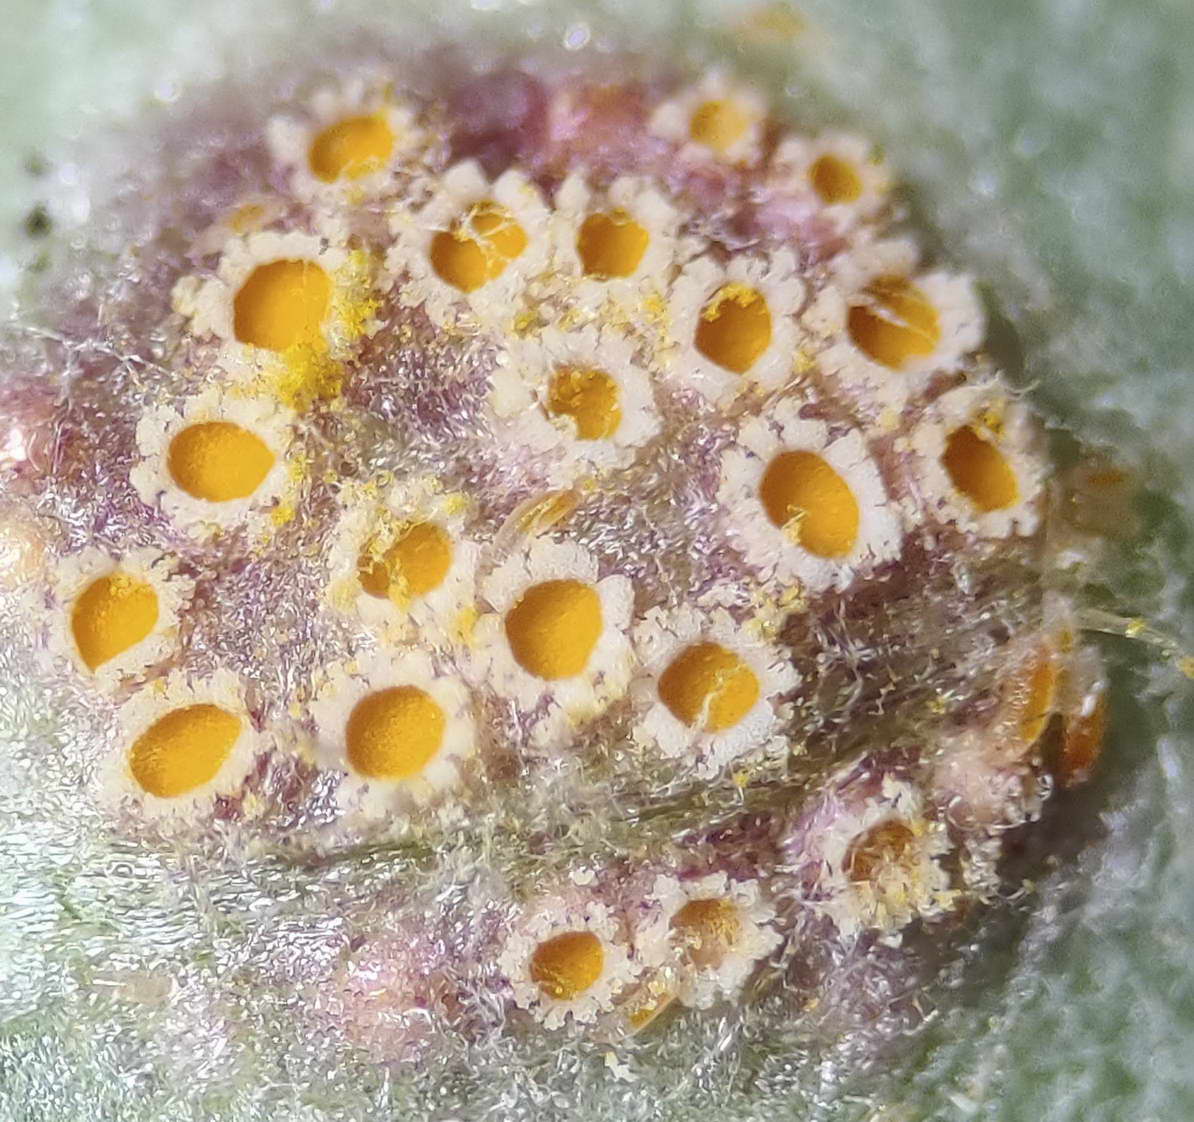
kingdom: Fungi
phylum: Basidiomycota
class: Pucciniomycetes
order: Pucciniales
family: Pucciniaceae
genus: Puccinia
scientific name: Puccinia poarum
